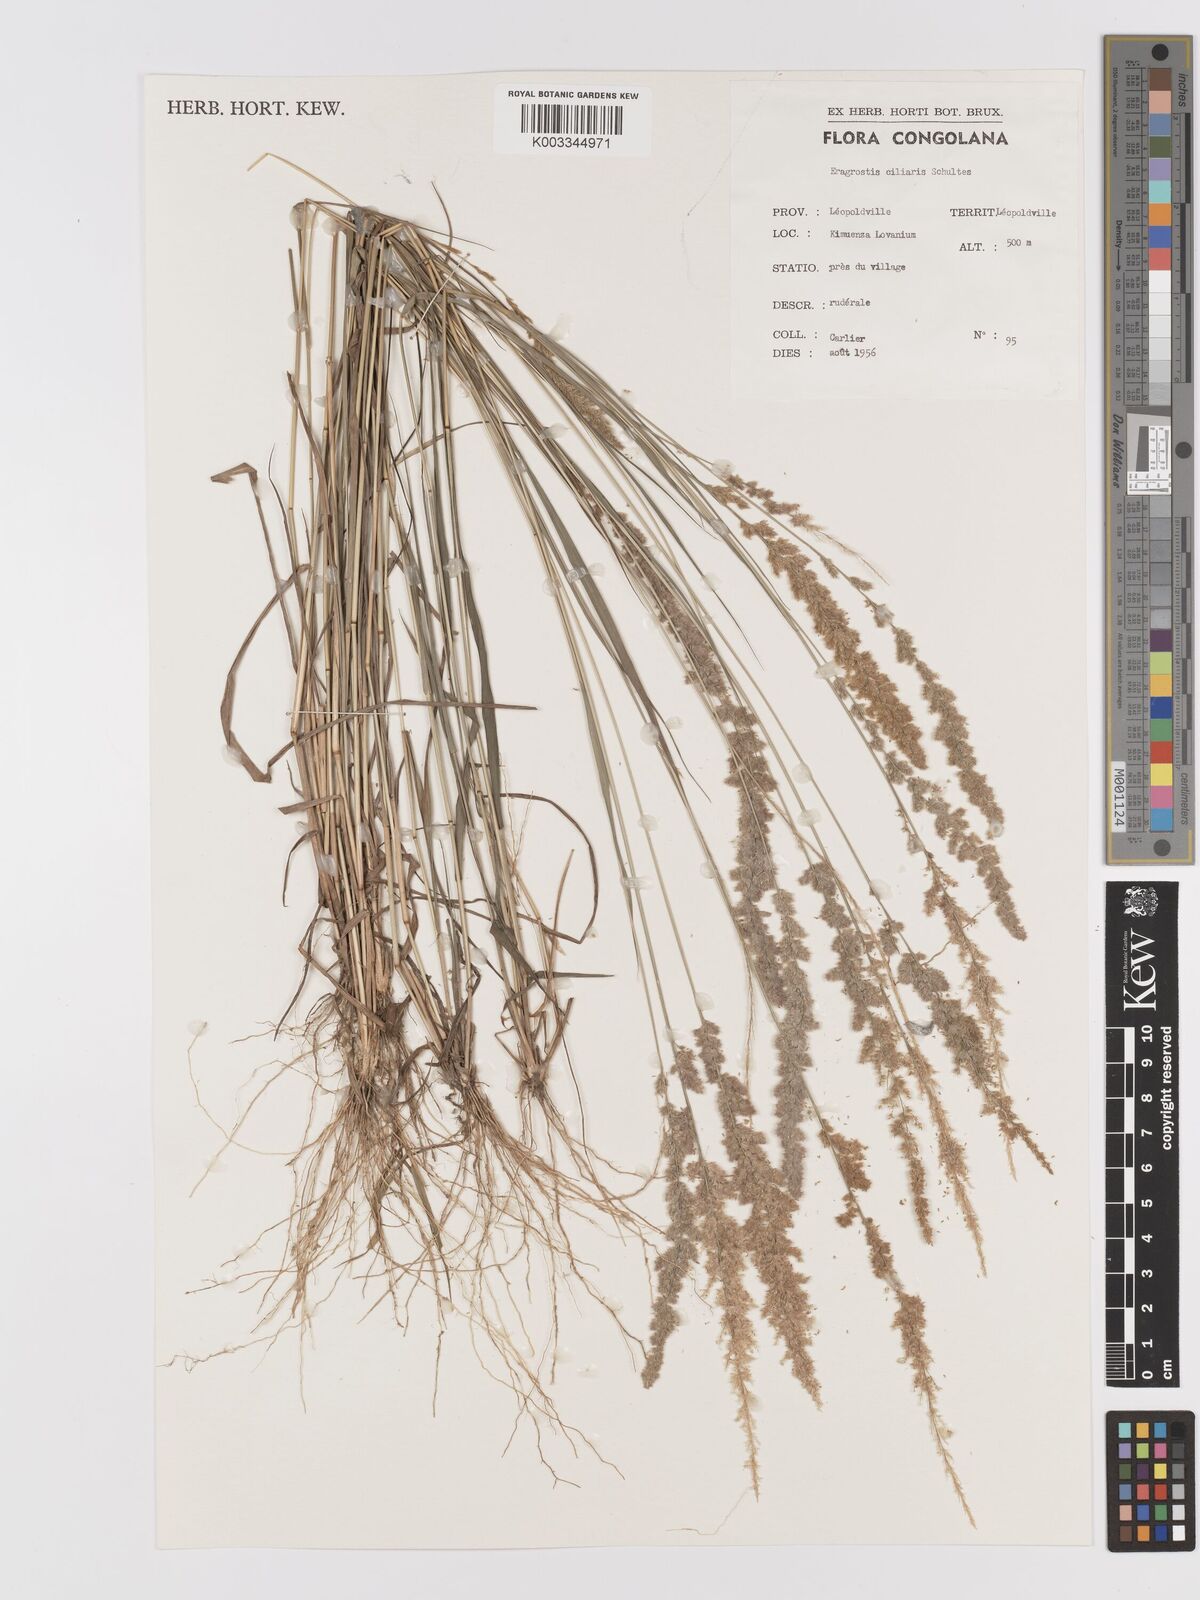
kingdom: Plantae
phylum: Tracheophyta
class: Liliopsida
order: Poales
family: Poaceae
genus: Eragrostis
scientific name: Eragrostis ciliaris
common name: Gophertail lovegrass
